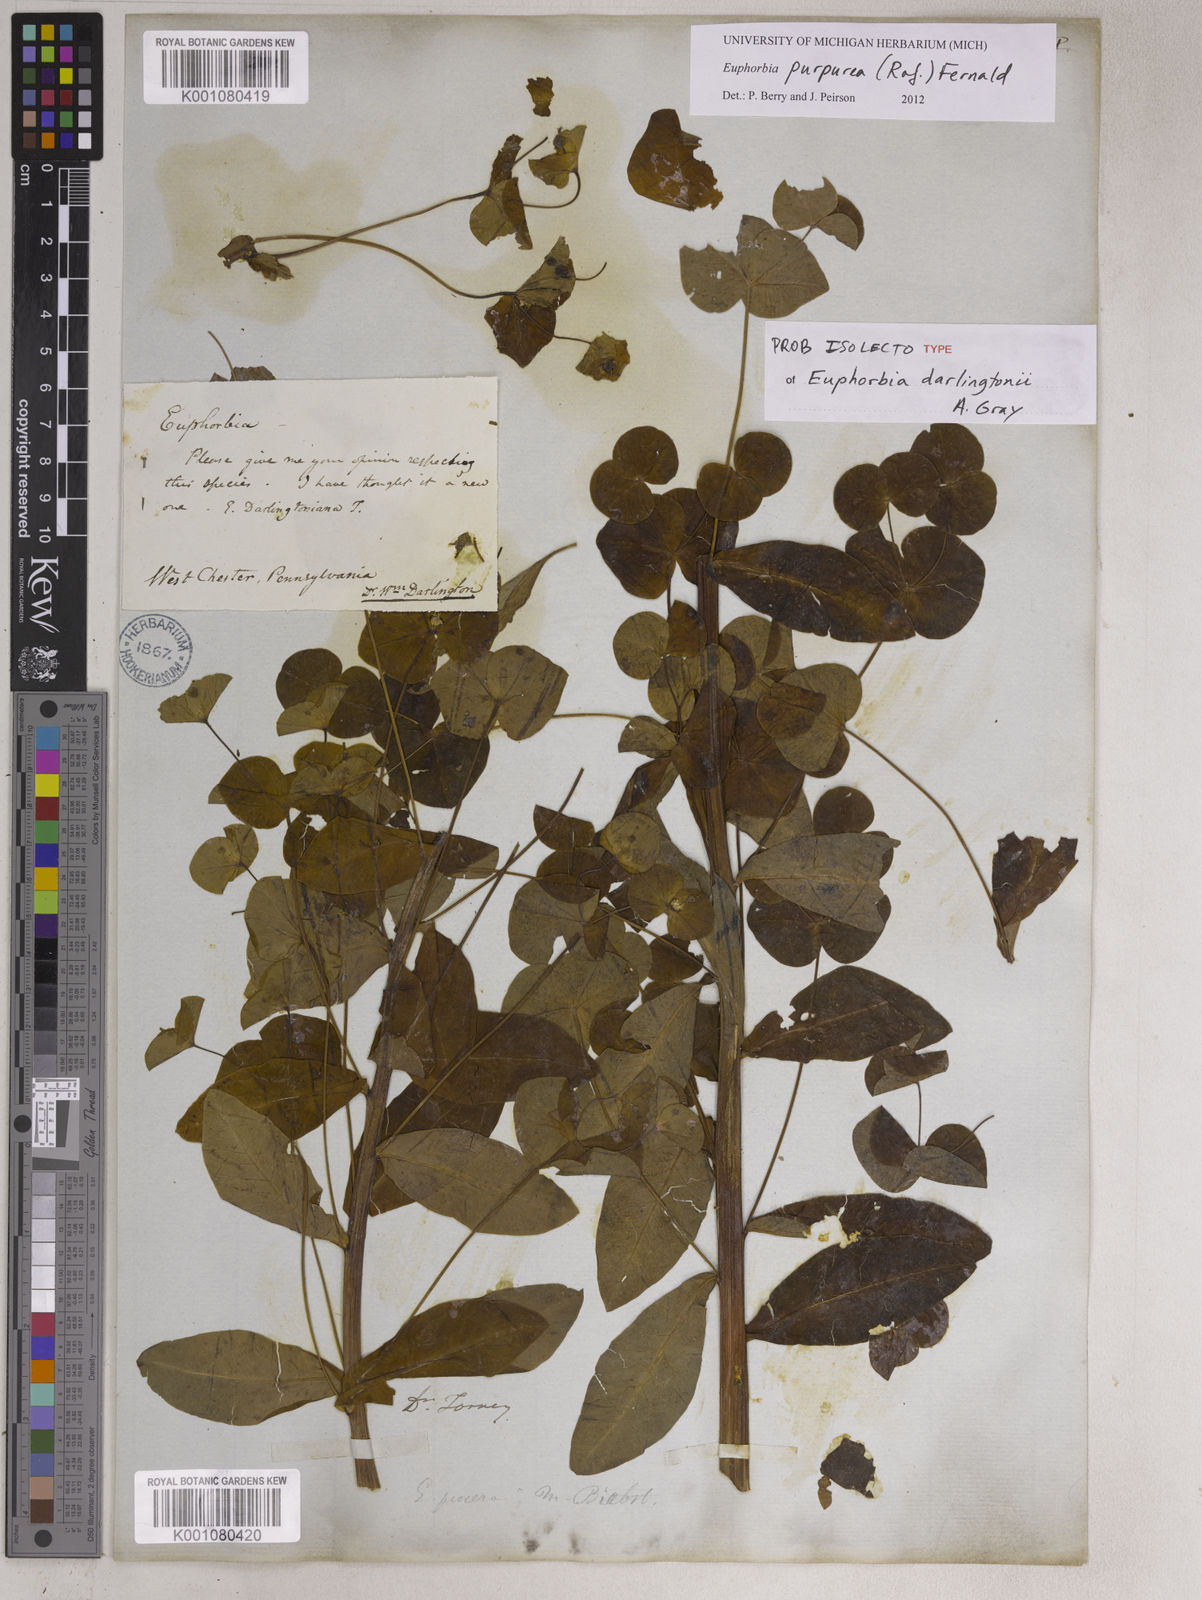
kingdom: Plantae
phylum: Tracheophyta
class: Magnoliopsida
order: Malpighiales
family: Euphorbiaceae
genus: Euphorbia
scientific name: Euphorbia purpurea
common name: Darlington's spurge
